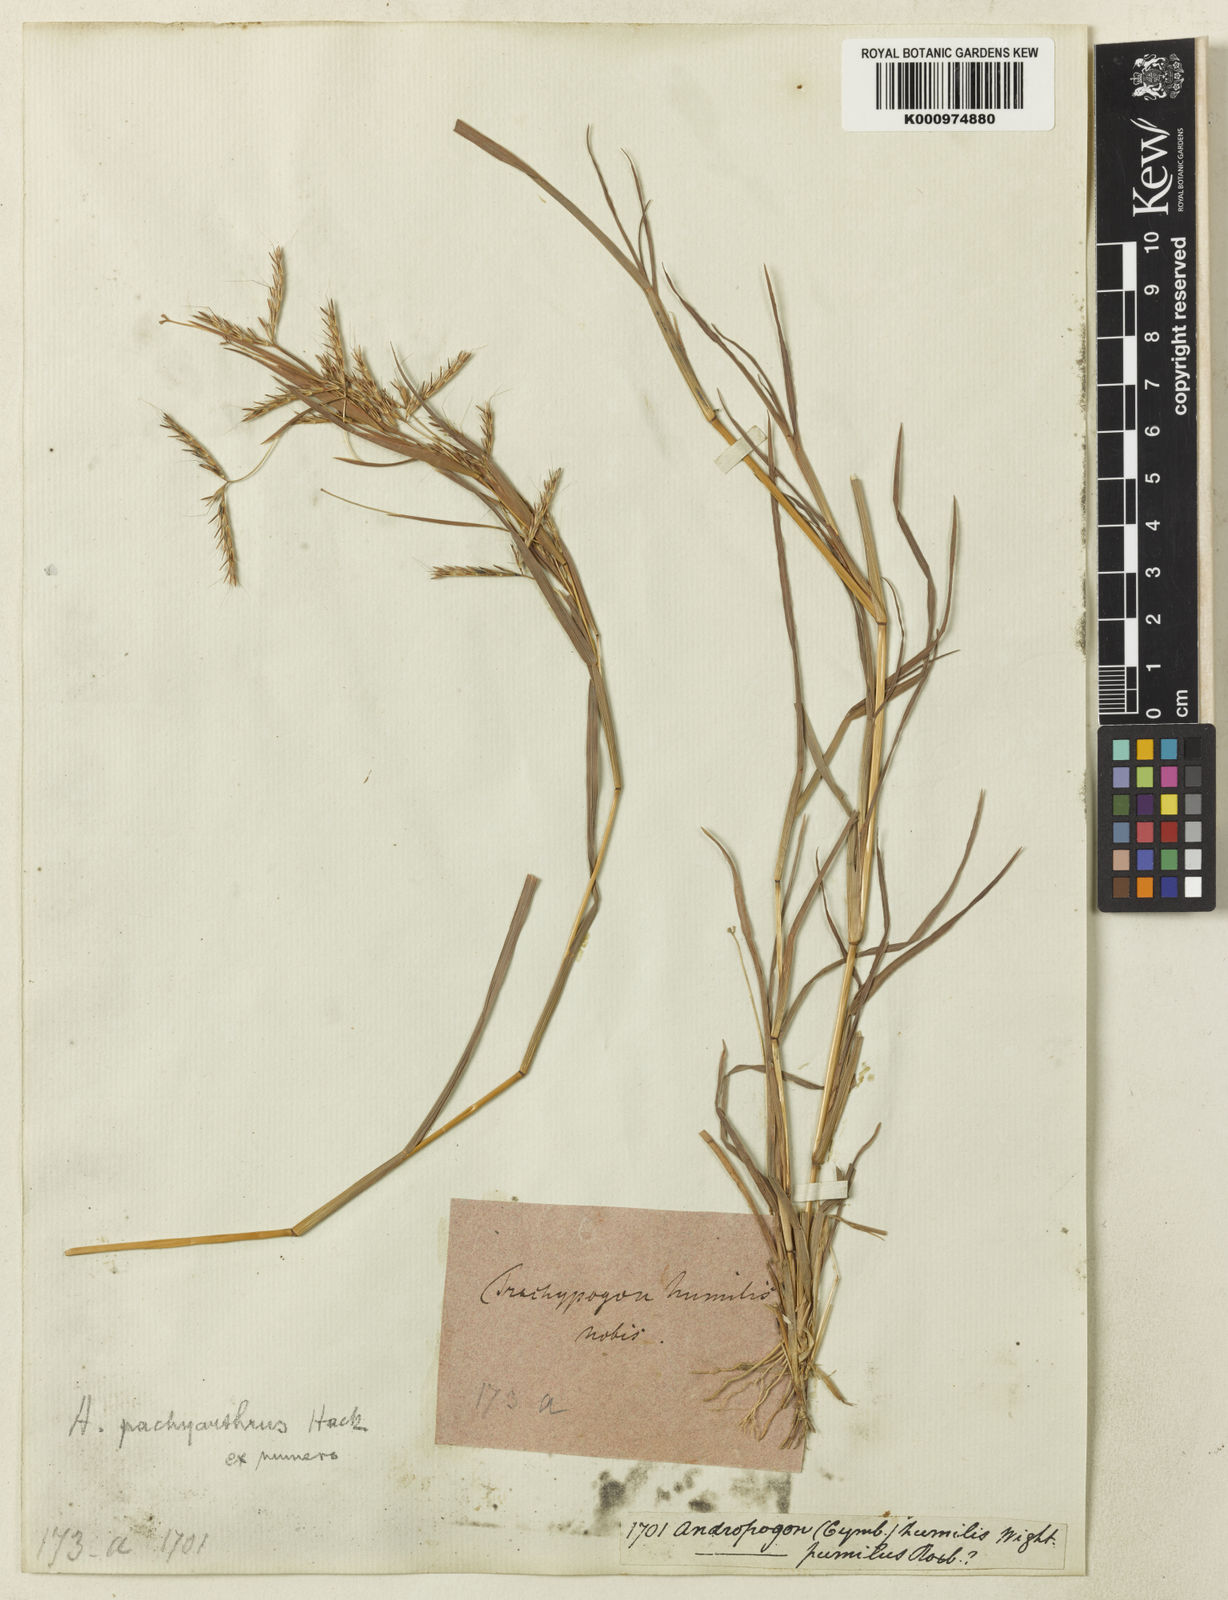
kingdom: Plantae
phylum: Tracheophyta
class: Liliopsida
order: Poales
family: Poaceae
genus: Andropogon
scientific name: Andropogon pumilus
